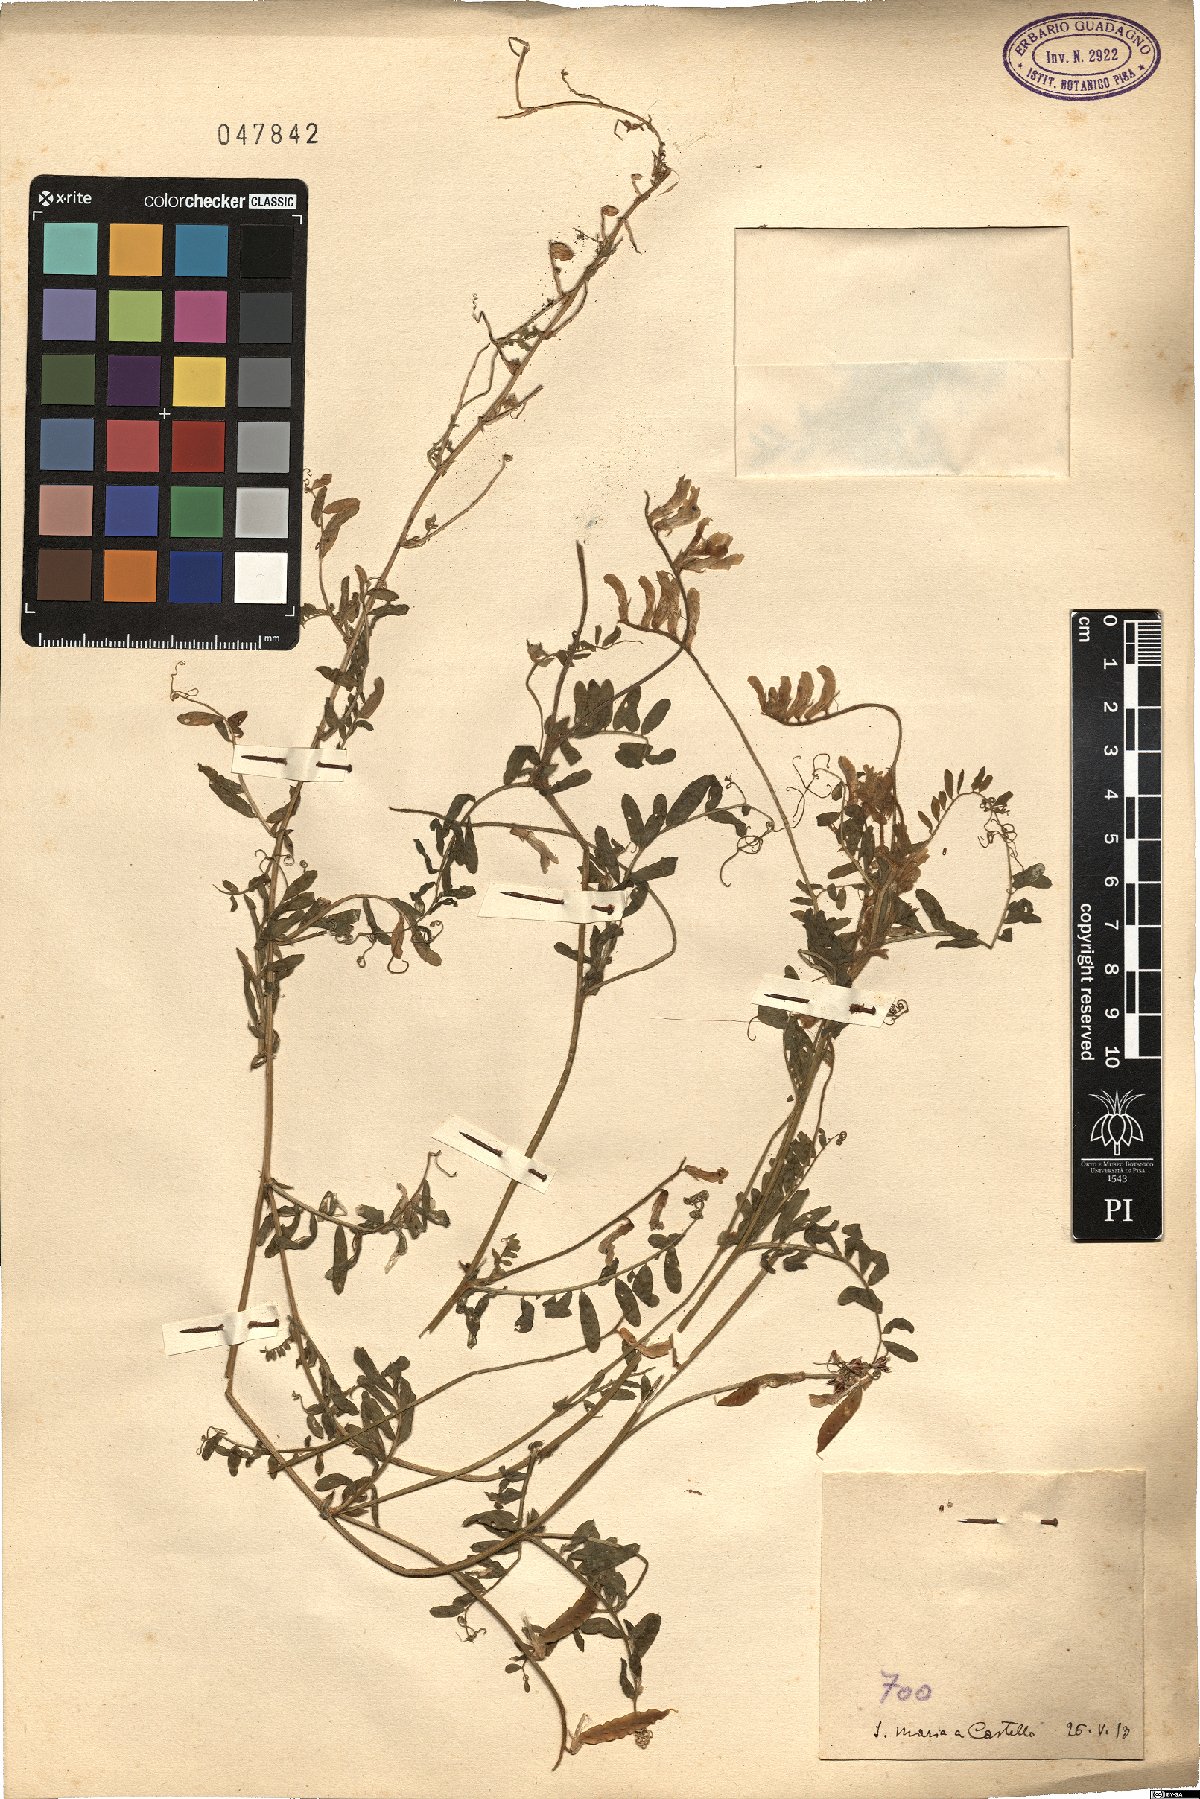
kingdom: Plantae
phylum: Tracheophyta
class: Magnoliopsida
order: Fabales
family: Fabaceae
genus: Vicia
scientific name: Vicia
